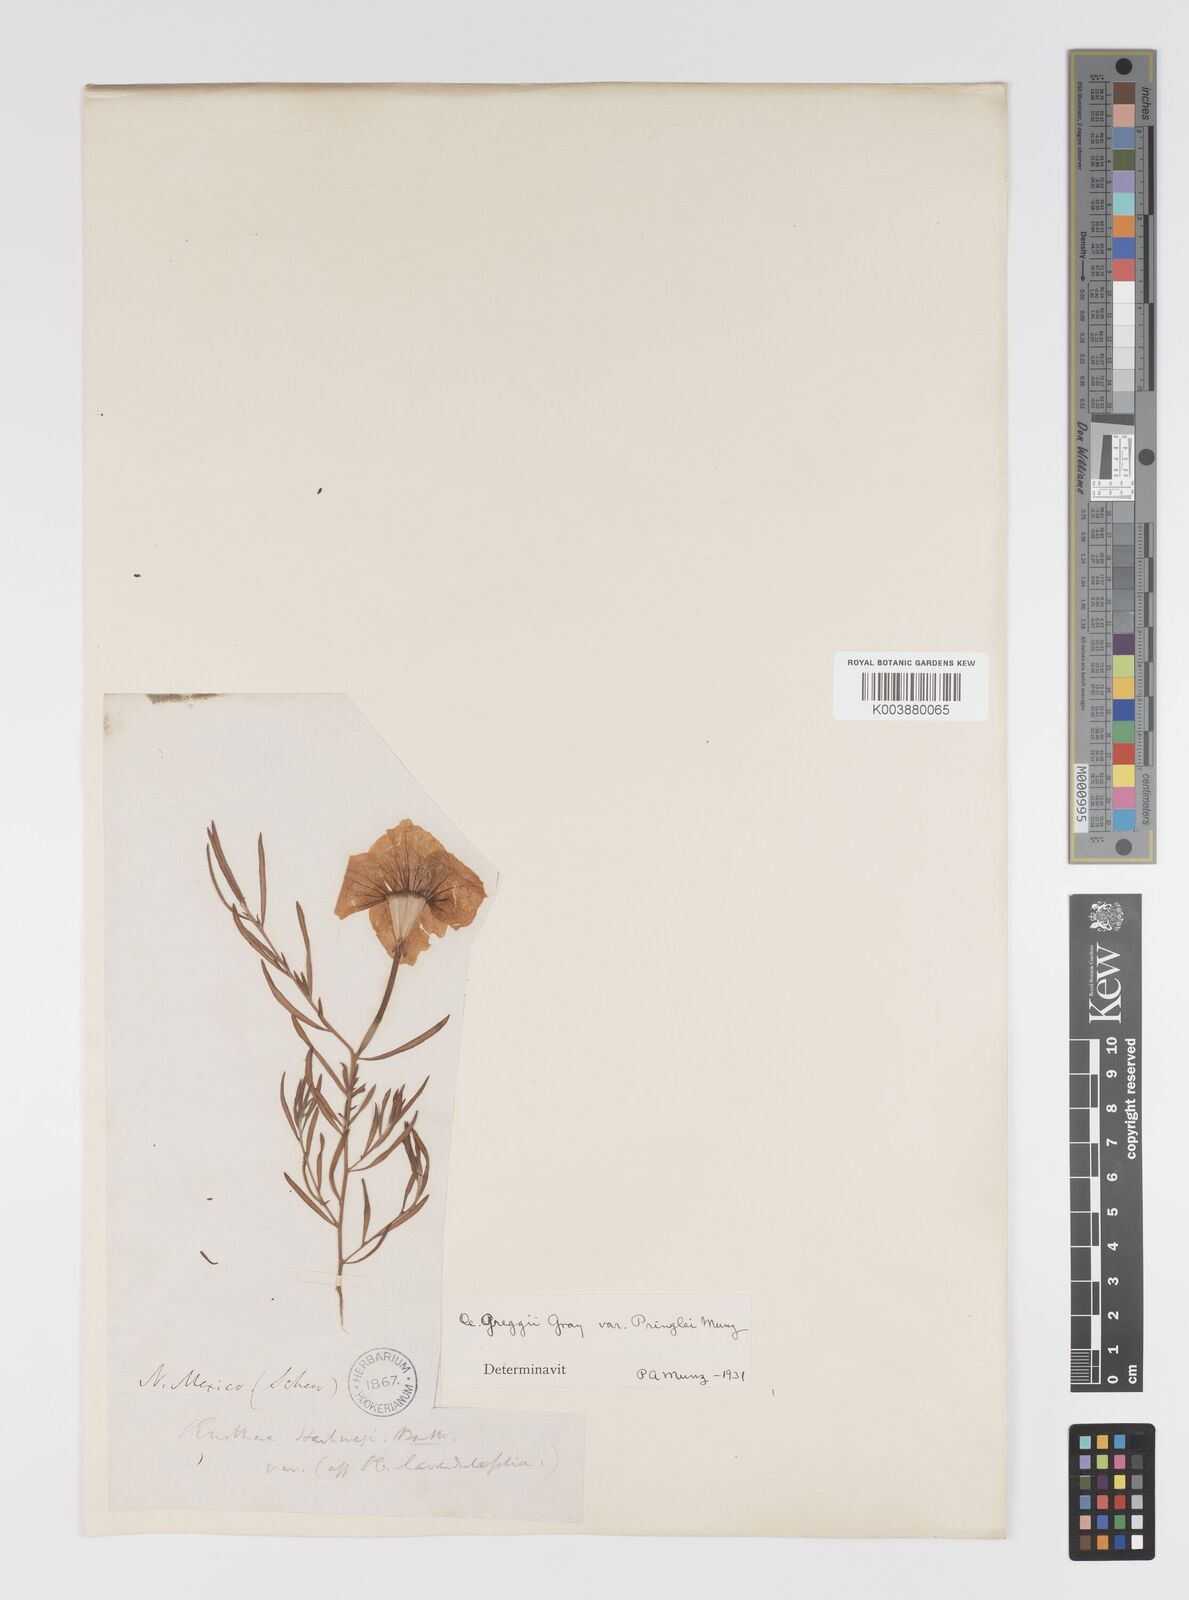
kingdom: Plantae
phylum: Tracheophyta
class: Magnoliopsida
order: Myrtales
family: Onagraceae
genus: Oenothera
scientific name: Oenothera hartwegii
